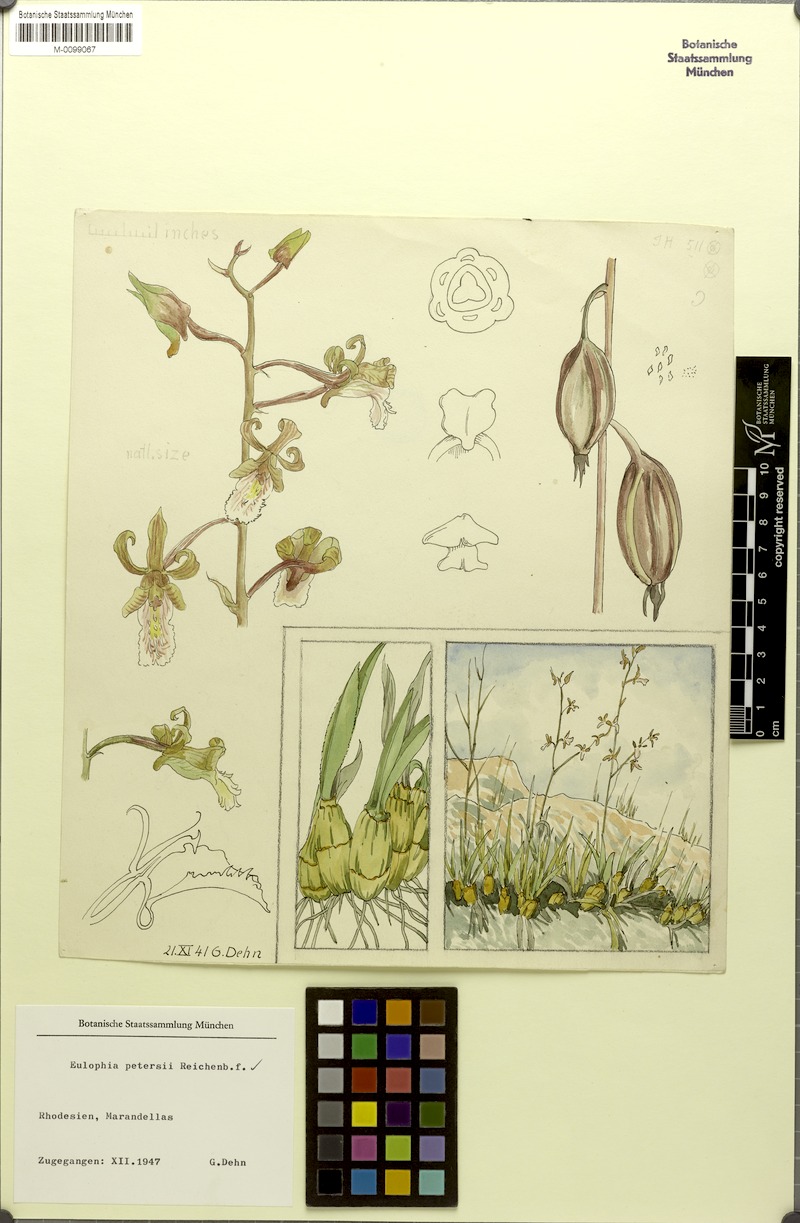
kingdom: Plantae
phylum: Tracheophyta
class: Liliopsida
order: Asparagales
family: Orchidaceae
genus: Eulophia
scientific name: Eulophia petersii
